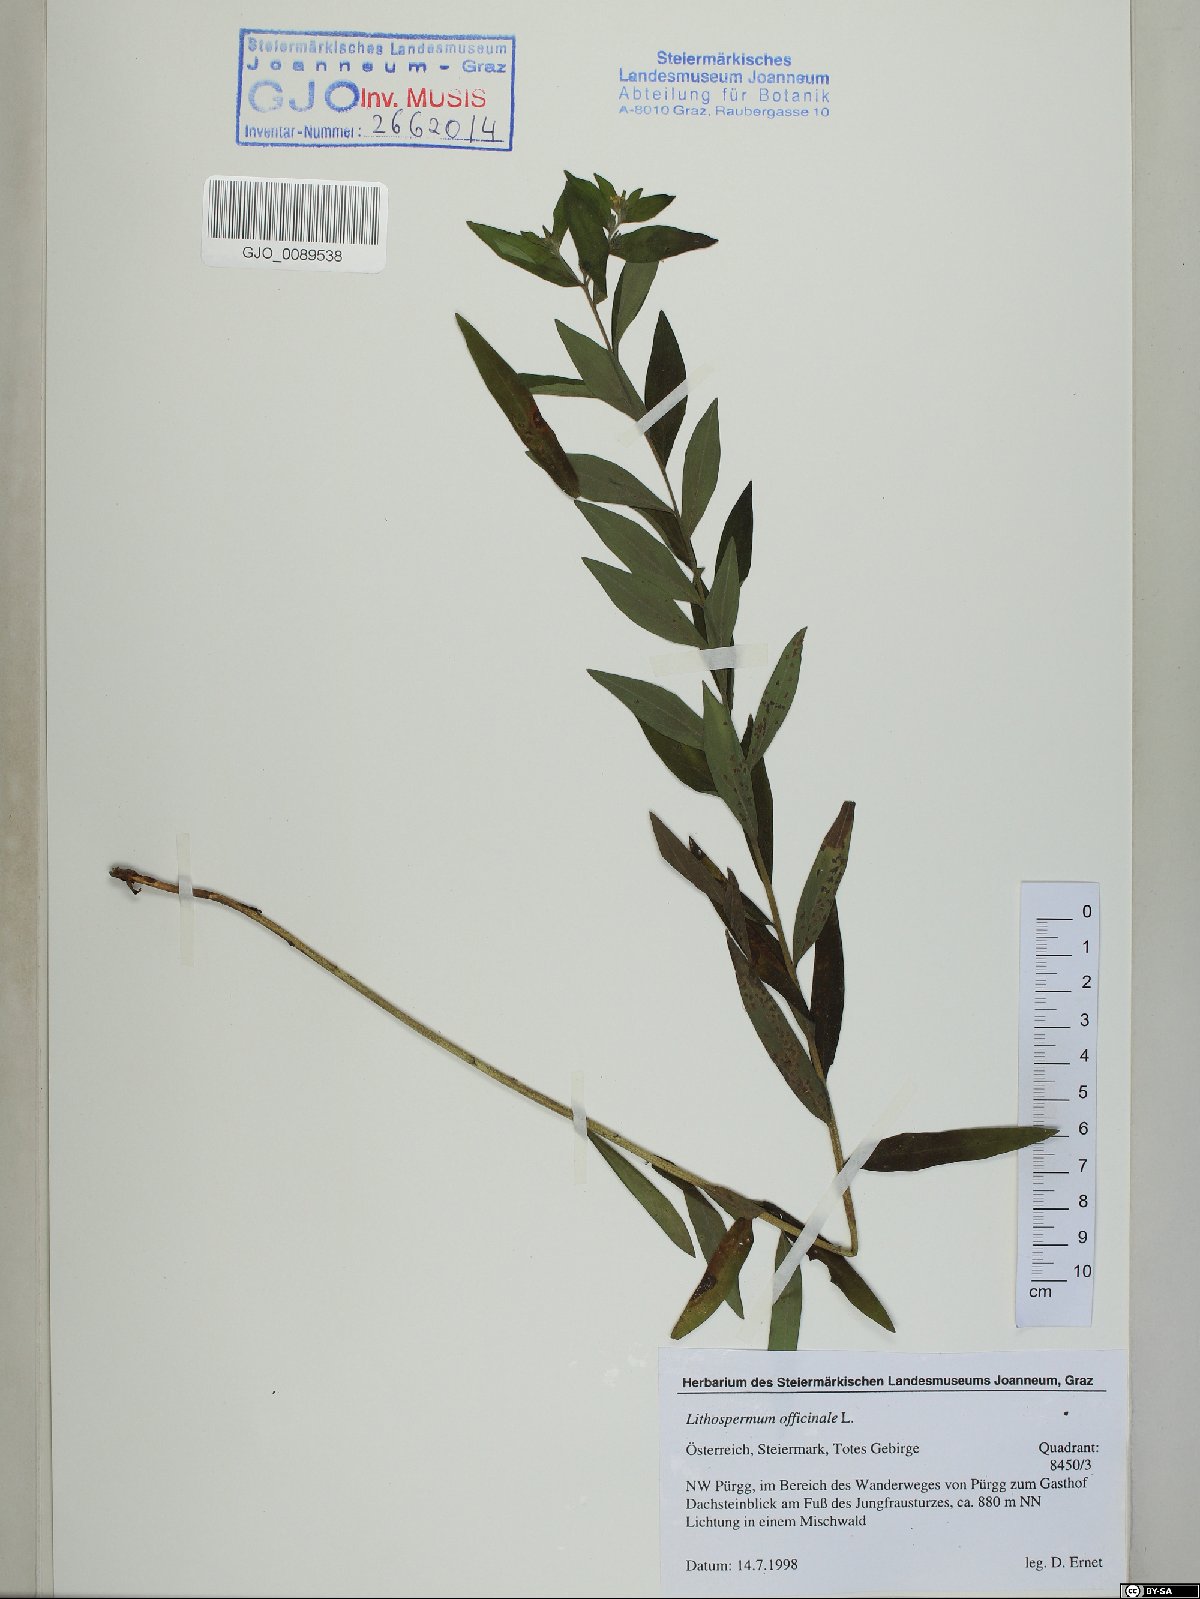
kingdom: Plantae
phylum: Tracheophyta
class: Magnoliopsida
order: Boraginales
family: Boraginaceae
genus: Lithospermum
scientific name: Lithospermum officinale
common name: Common gromwell
